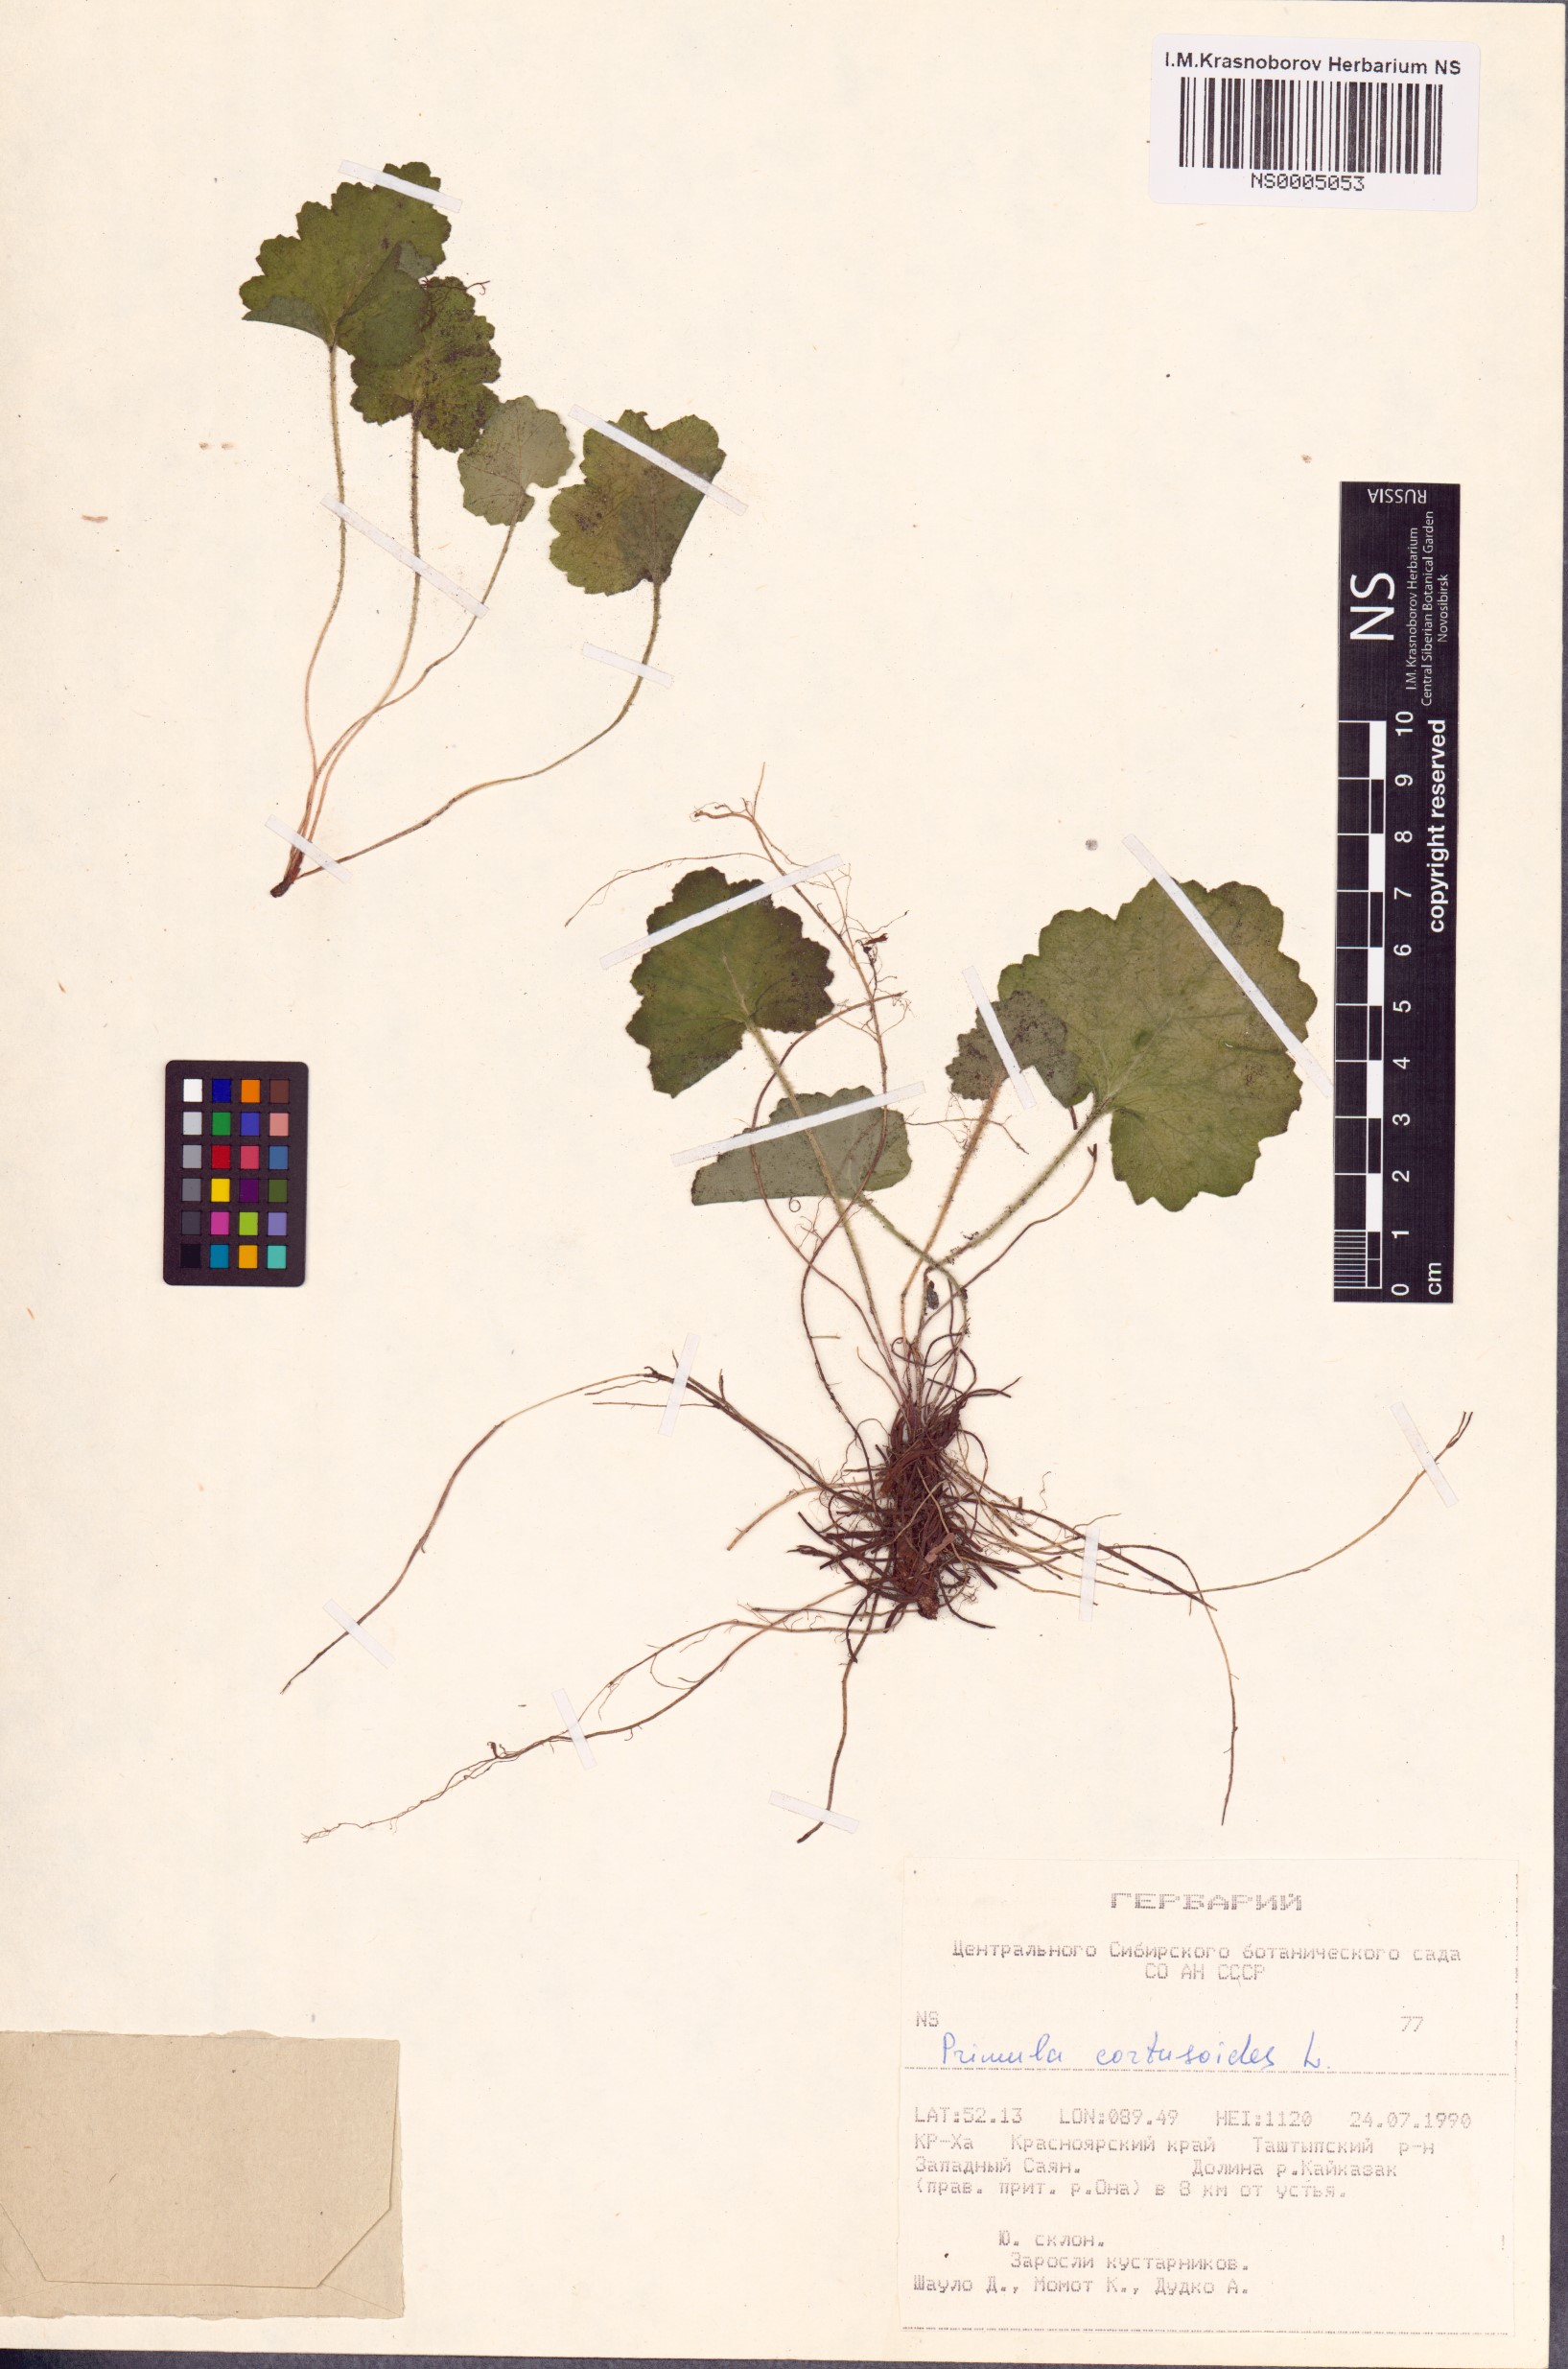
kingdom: Plantae
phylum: Tracheophyta
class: Magnoliopsida
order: Ericales
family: Primulaceae
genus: Primula
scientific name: Primula cortusoides
